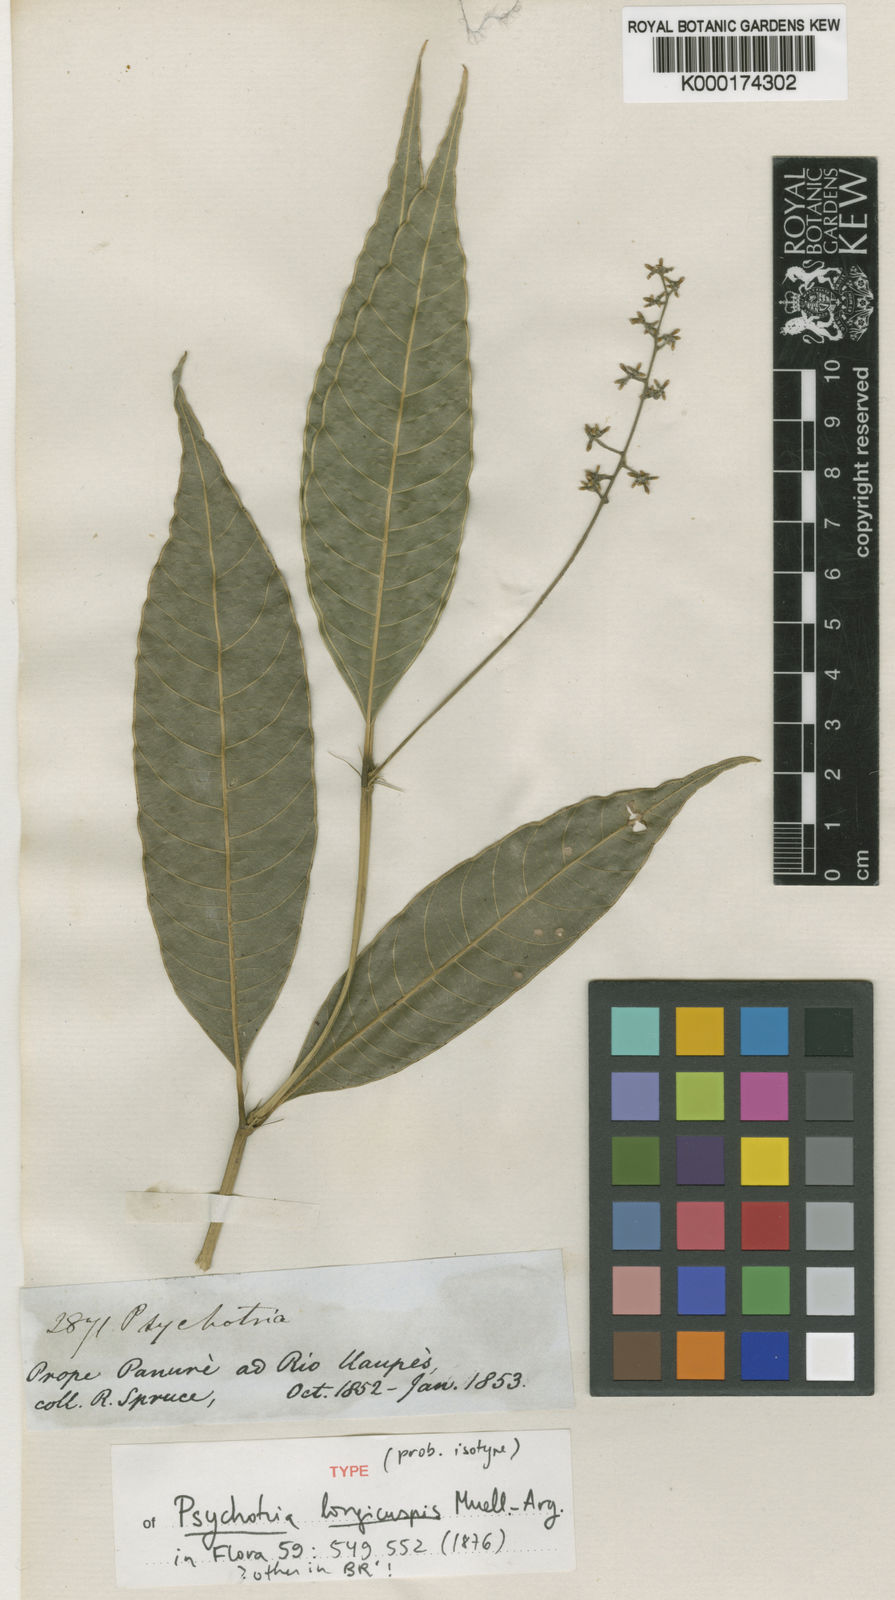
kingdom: Plantae
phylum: Tracheophyta
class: Magnoliopsida
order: Gentianales
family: Rubiaceae
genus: Psychotria
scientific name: Psychotria
